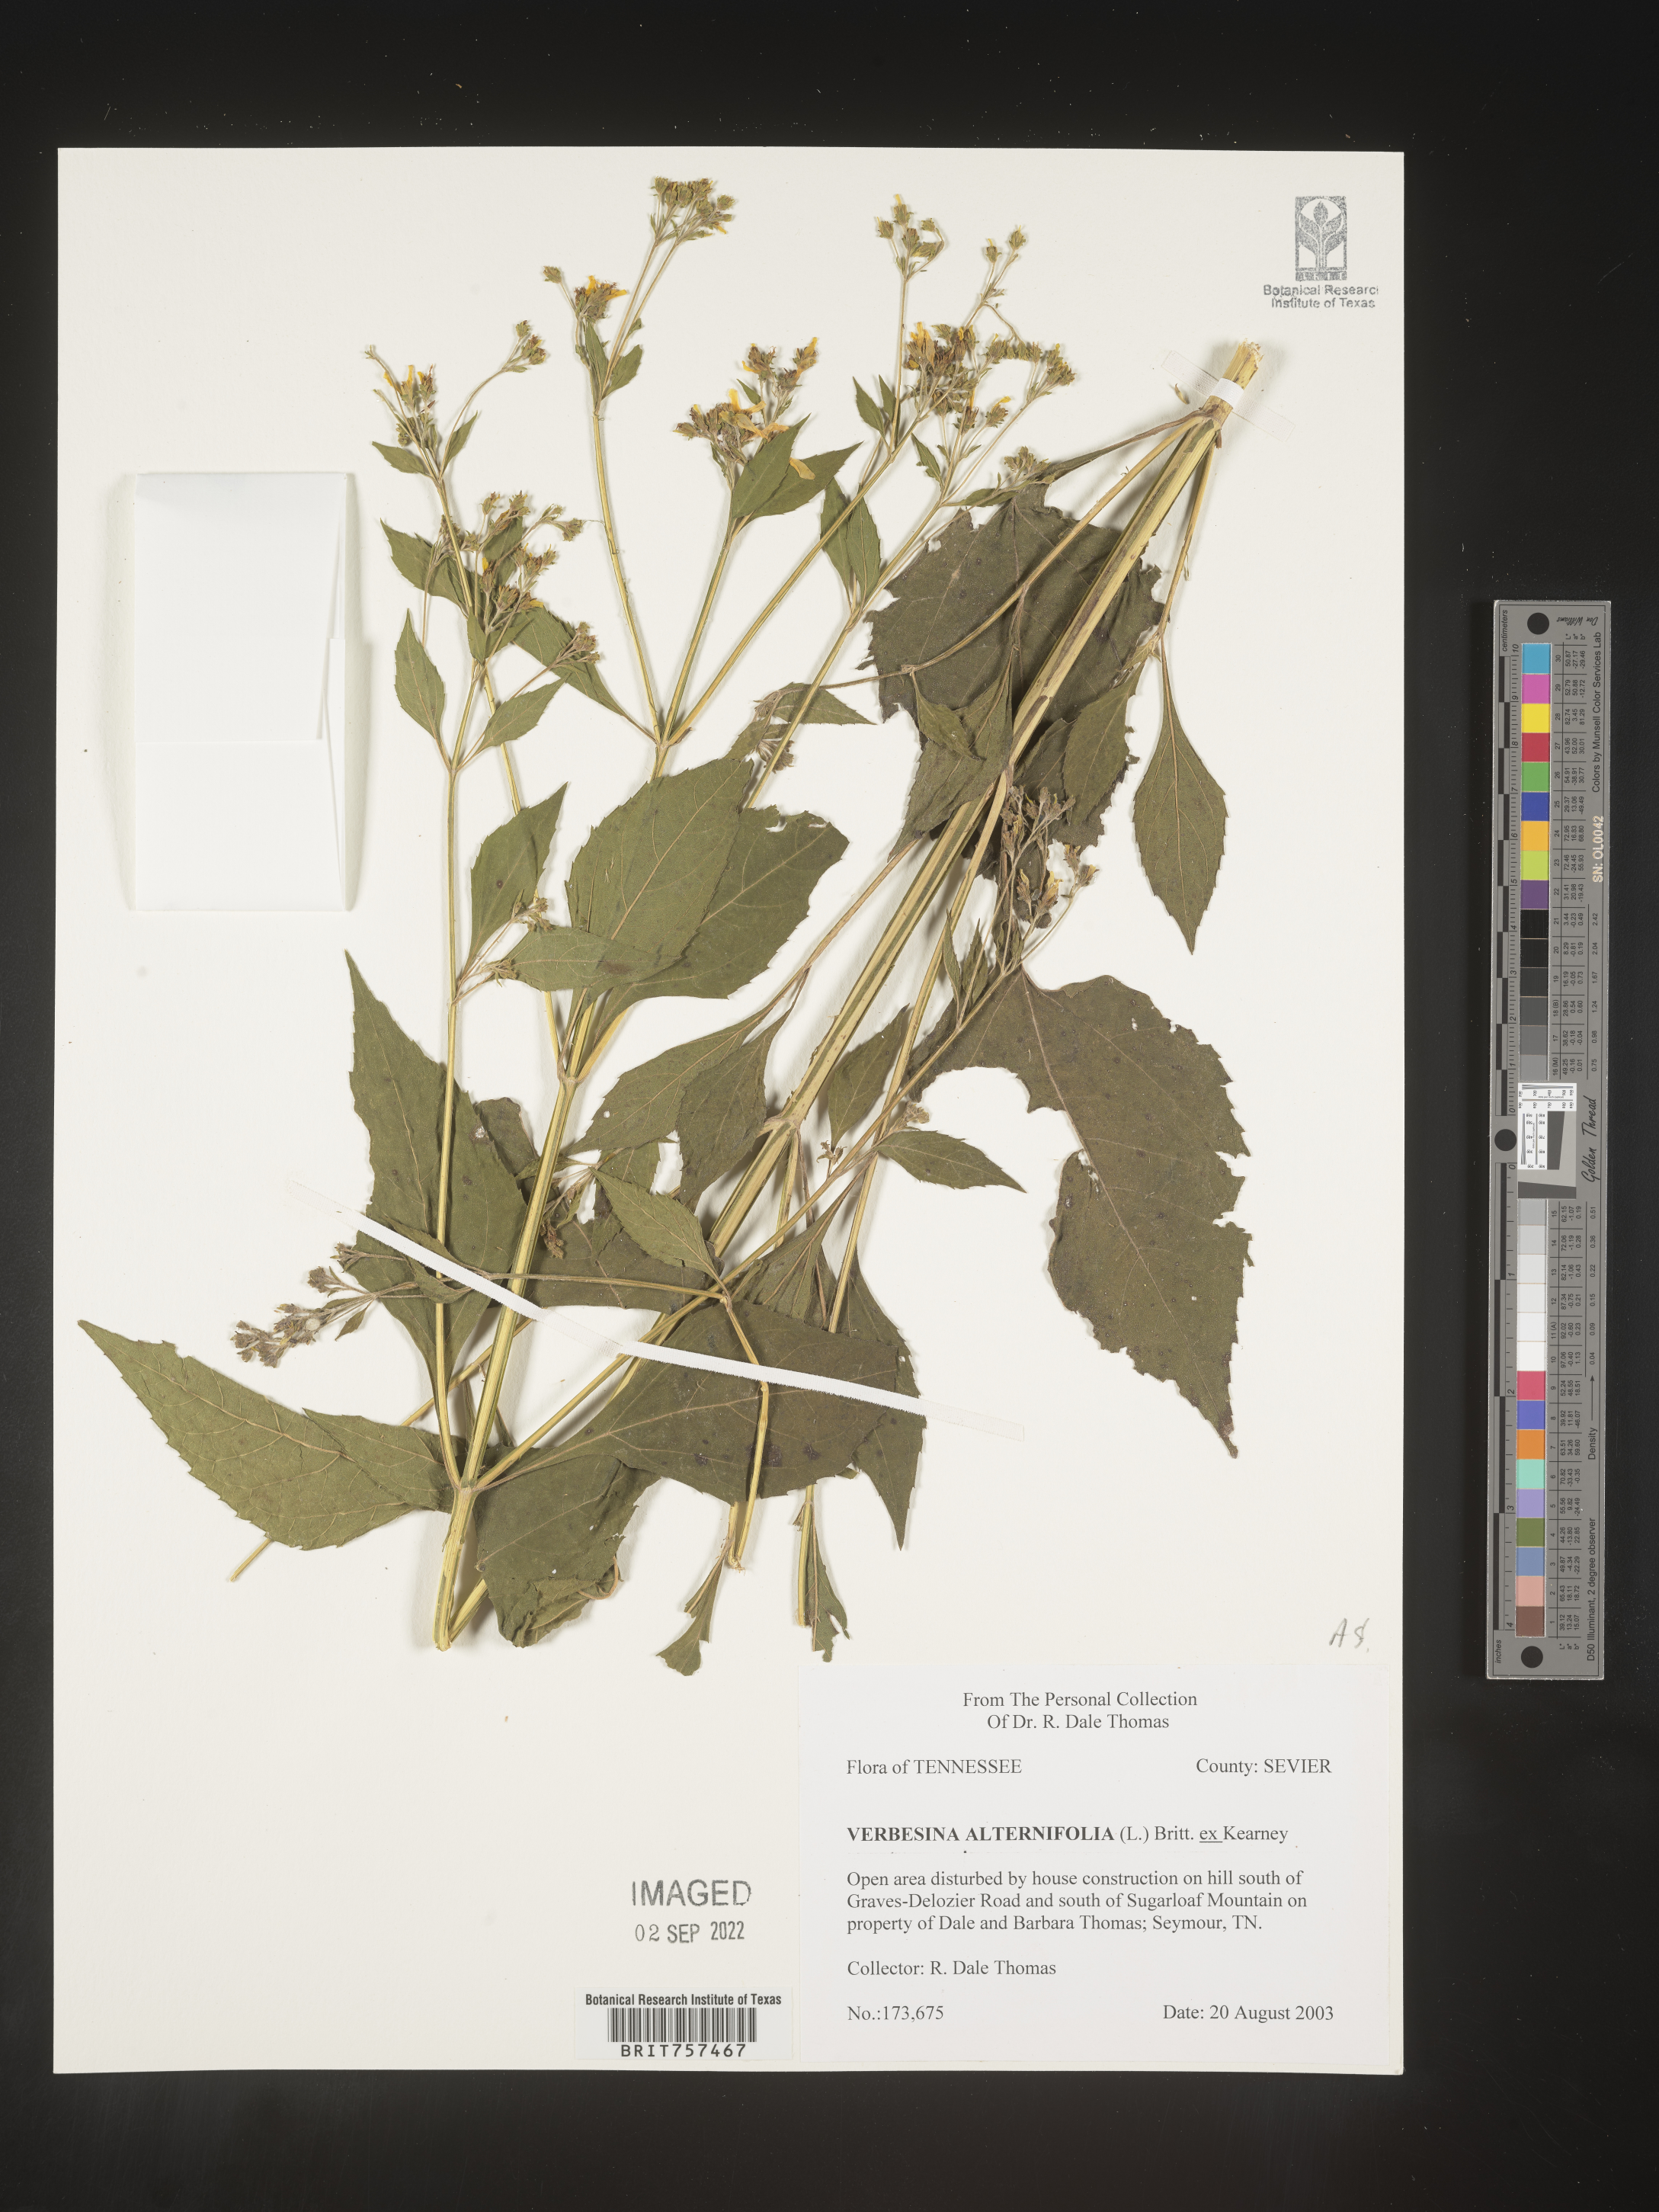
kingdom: Plantae
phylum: Tracheophyta
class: Magnoliopsida
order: Asterales
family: Asteraceae
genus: Verbesina
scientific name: Verbesina alternifolia
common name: Wingstem
